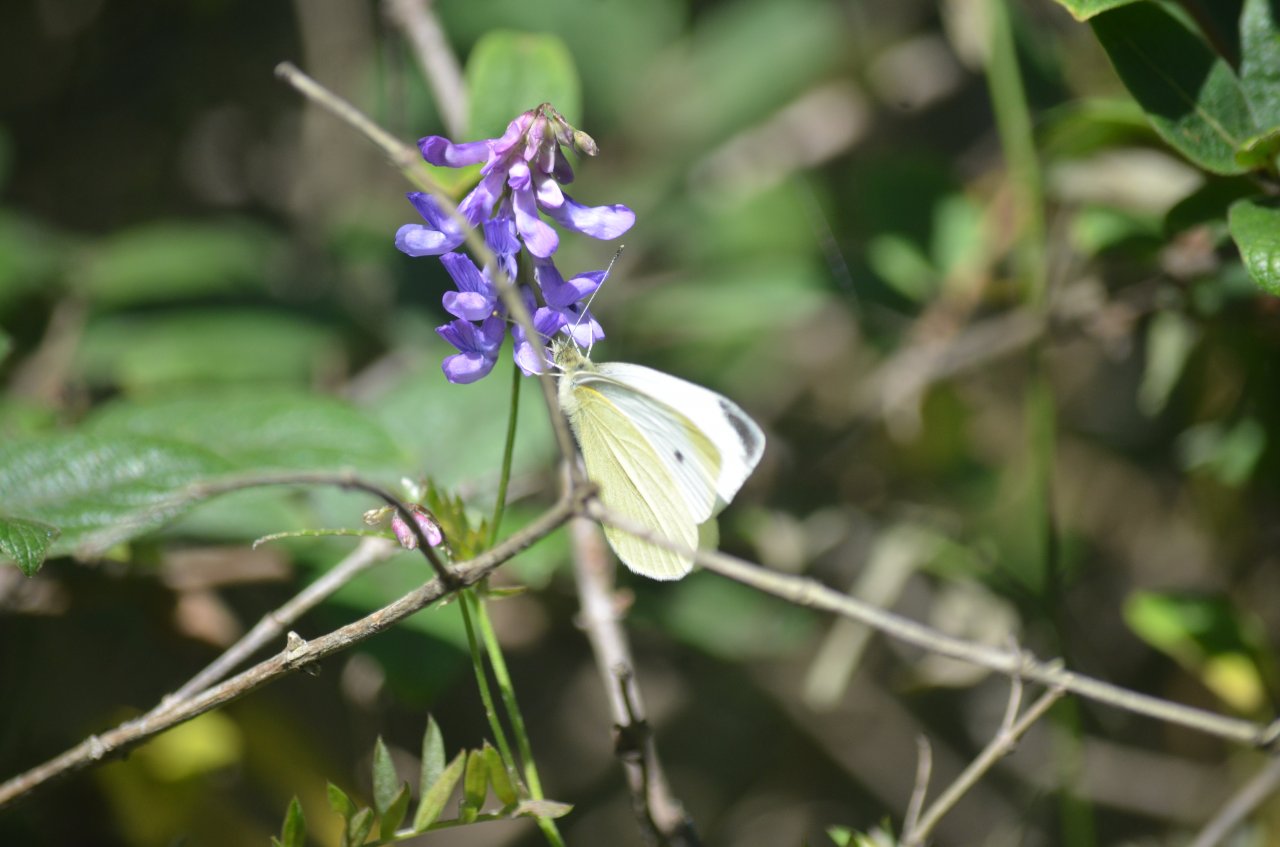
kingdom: Animalia
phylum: Arthropoda
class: Insecta
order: Lepidoptera
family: Pieridae
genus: Pieris
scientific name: Pieris rapae
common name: Cabbage White
